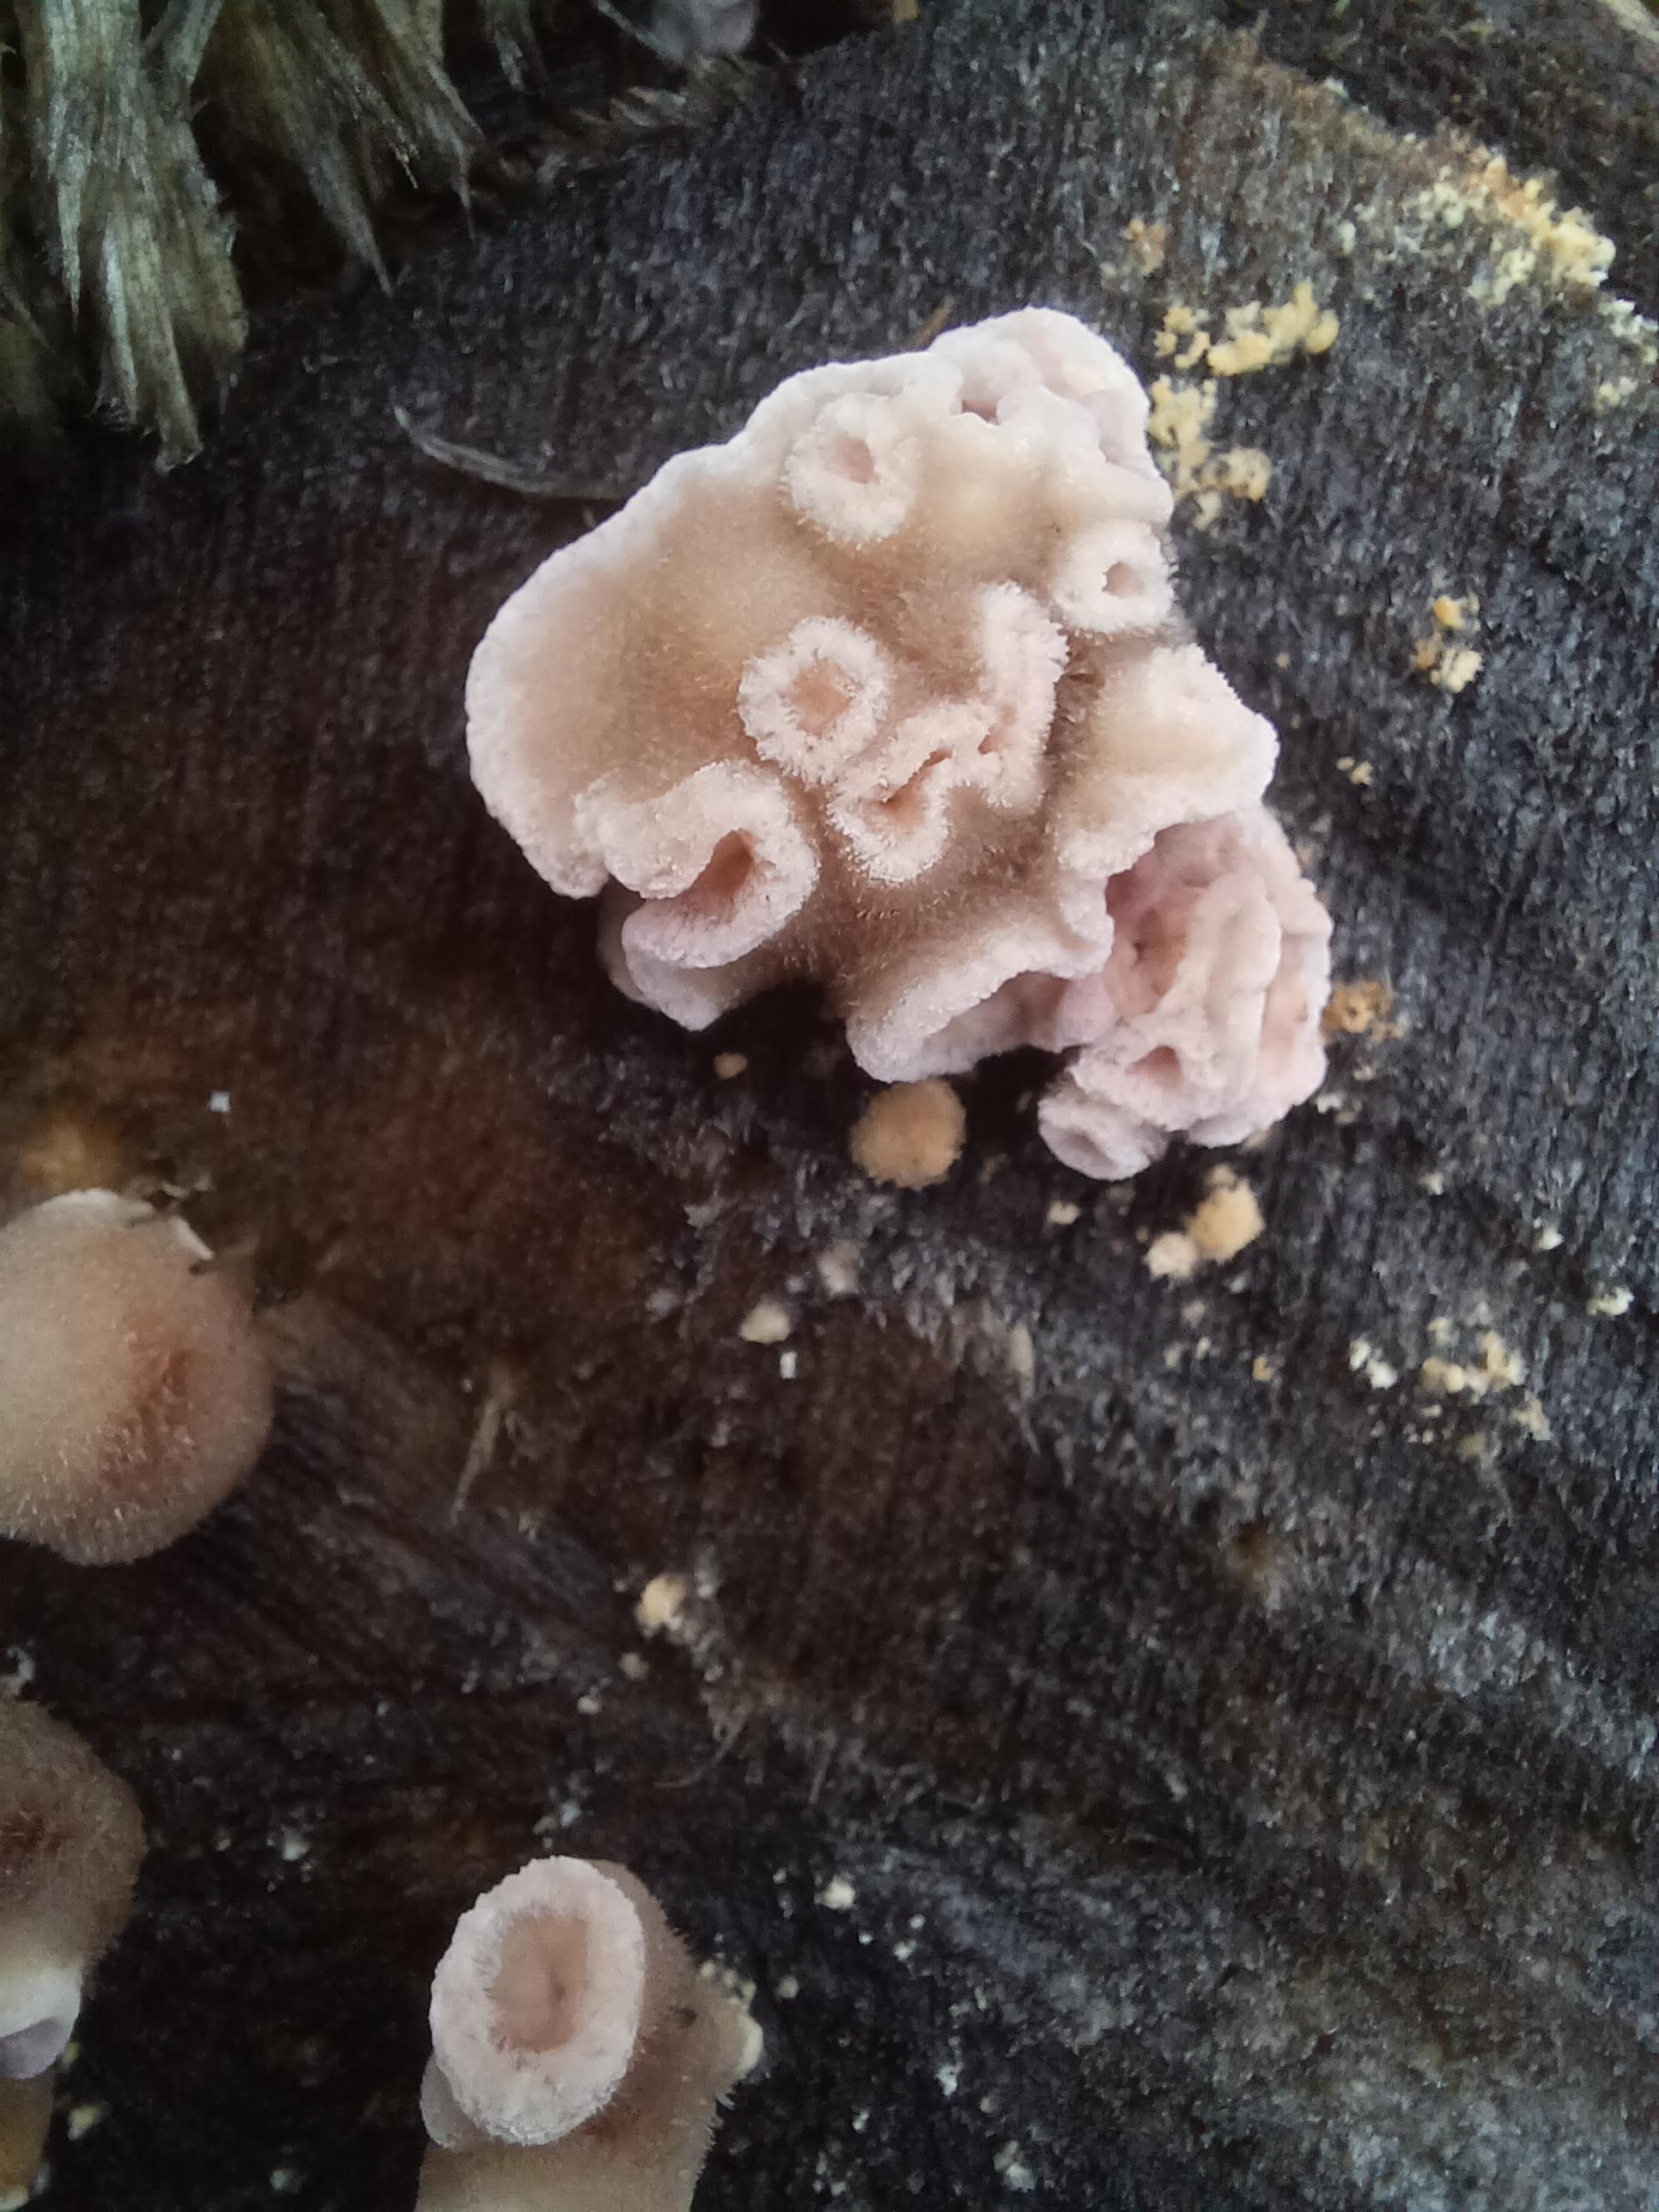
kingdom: Fungi
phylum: Basidiomycota
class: Agaricomycetes
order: Agaricales
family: Cyphellaceae
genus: Chondrostereum
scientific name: Chondrostereum purpureum
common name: purpurlædersvamp
